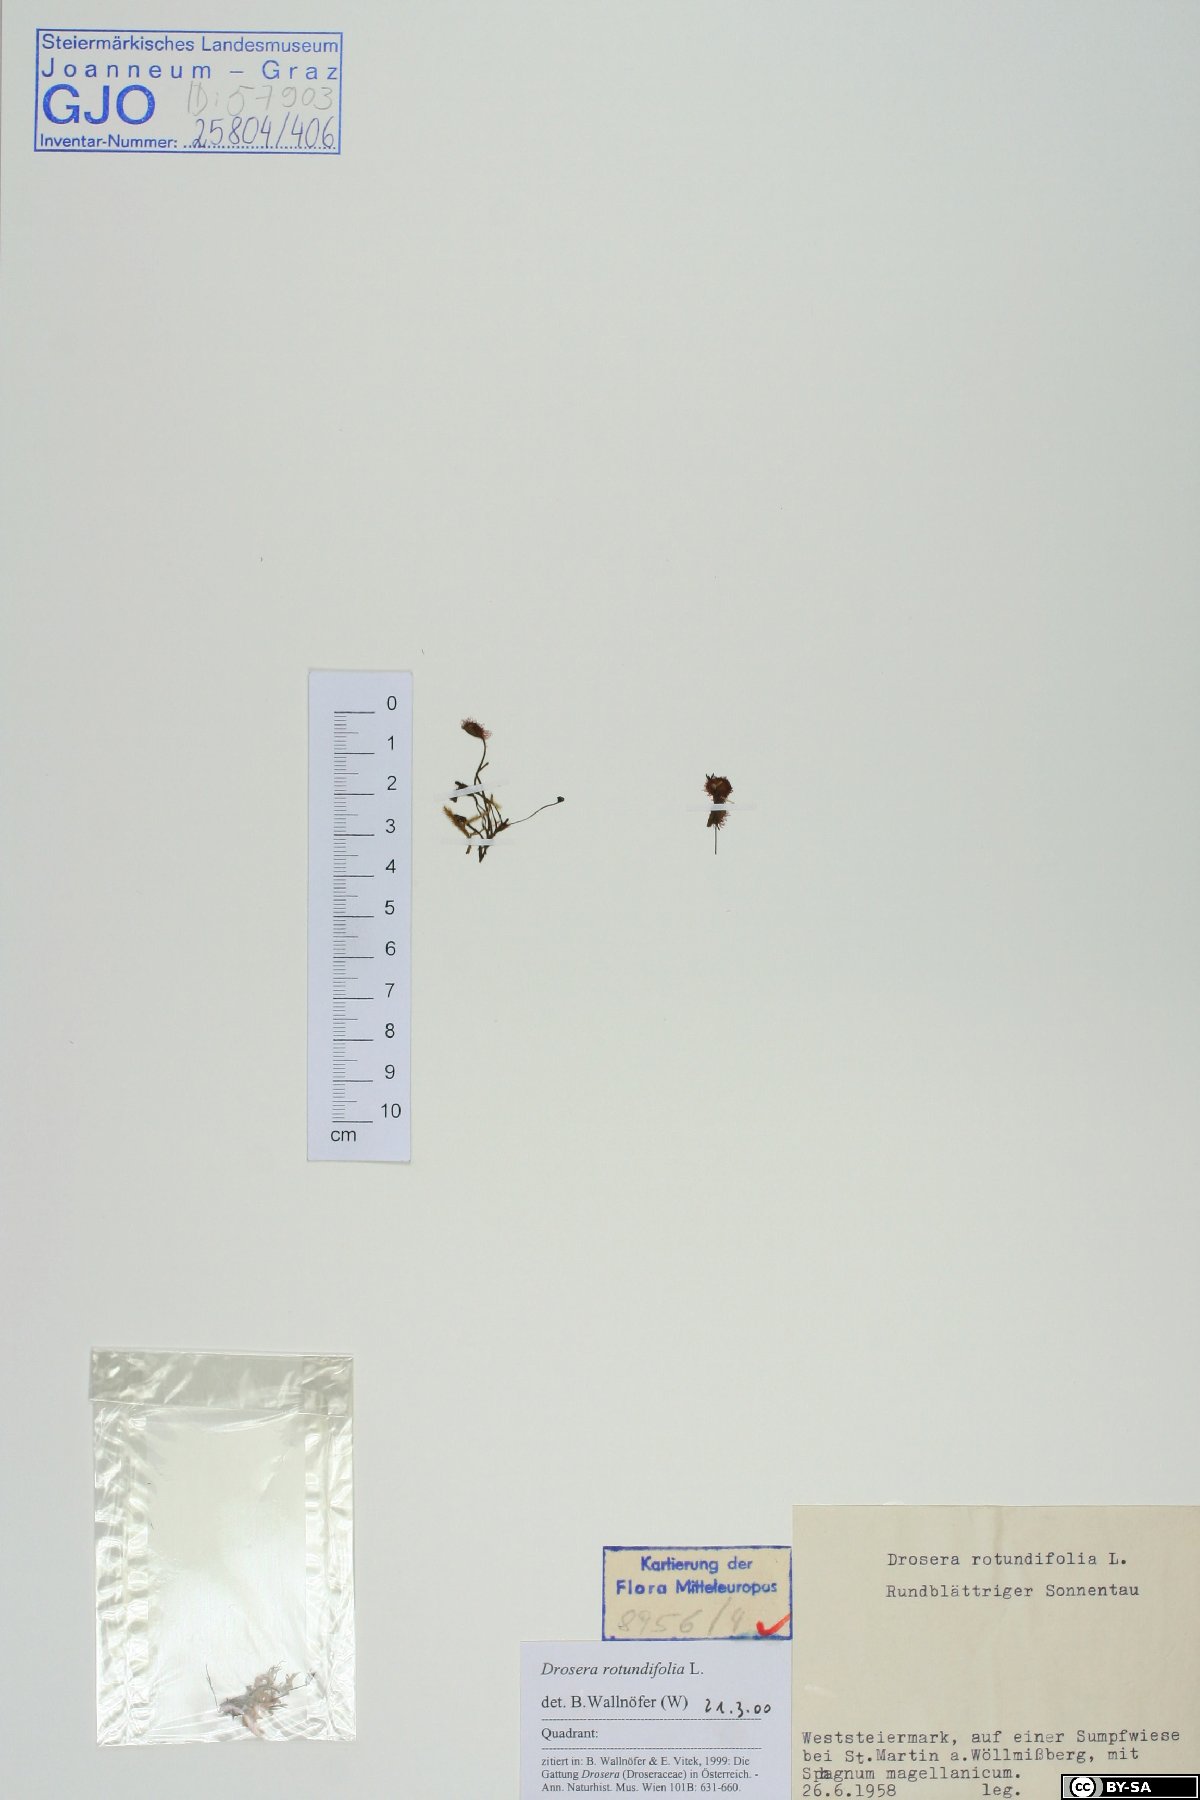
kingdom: Plantae
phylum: Tracheophyta
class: Magnoliopsida
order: Caryophyllales
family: Droseraceae
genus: Drosera
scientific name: Drosera rotundifolia
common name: Round-leaved sundew
